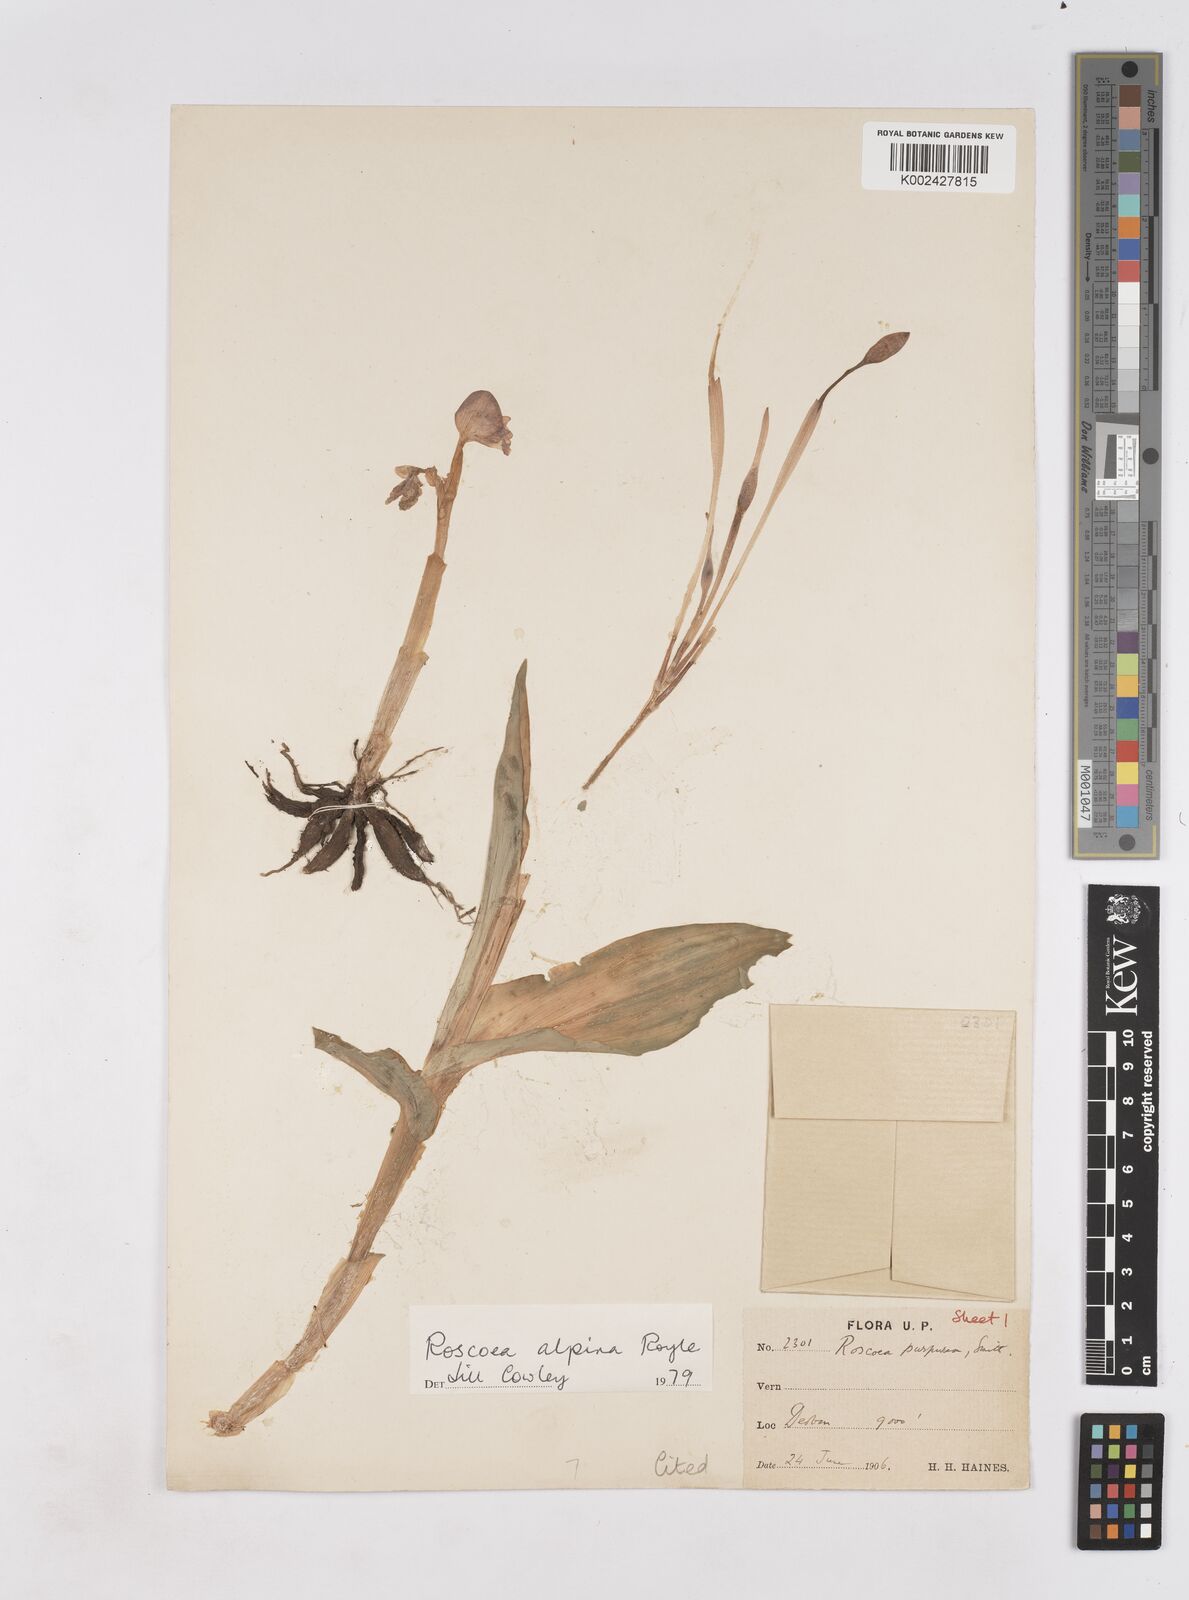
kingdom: Plantae
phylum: Tracheophyta
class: Liliopsida
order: Zingiberales
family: Zingiberaceae
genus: Roscoea
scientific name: Roscoea alpina
